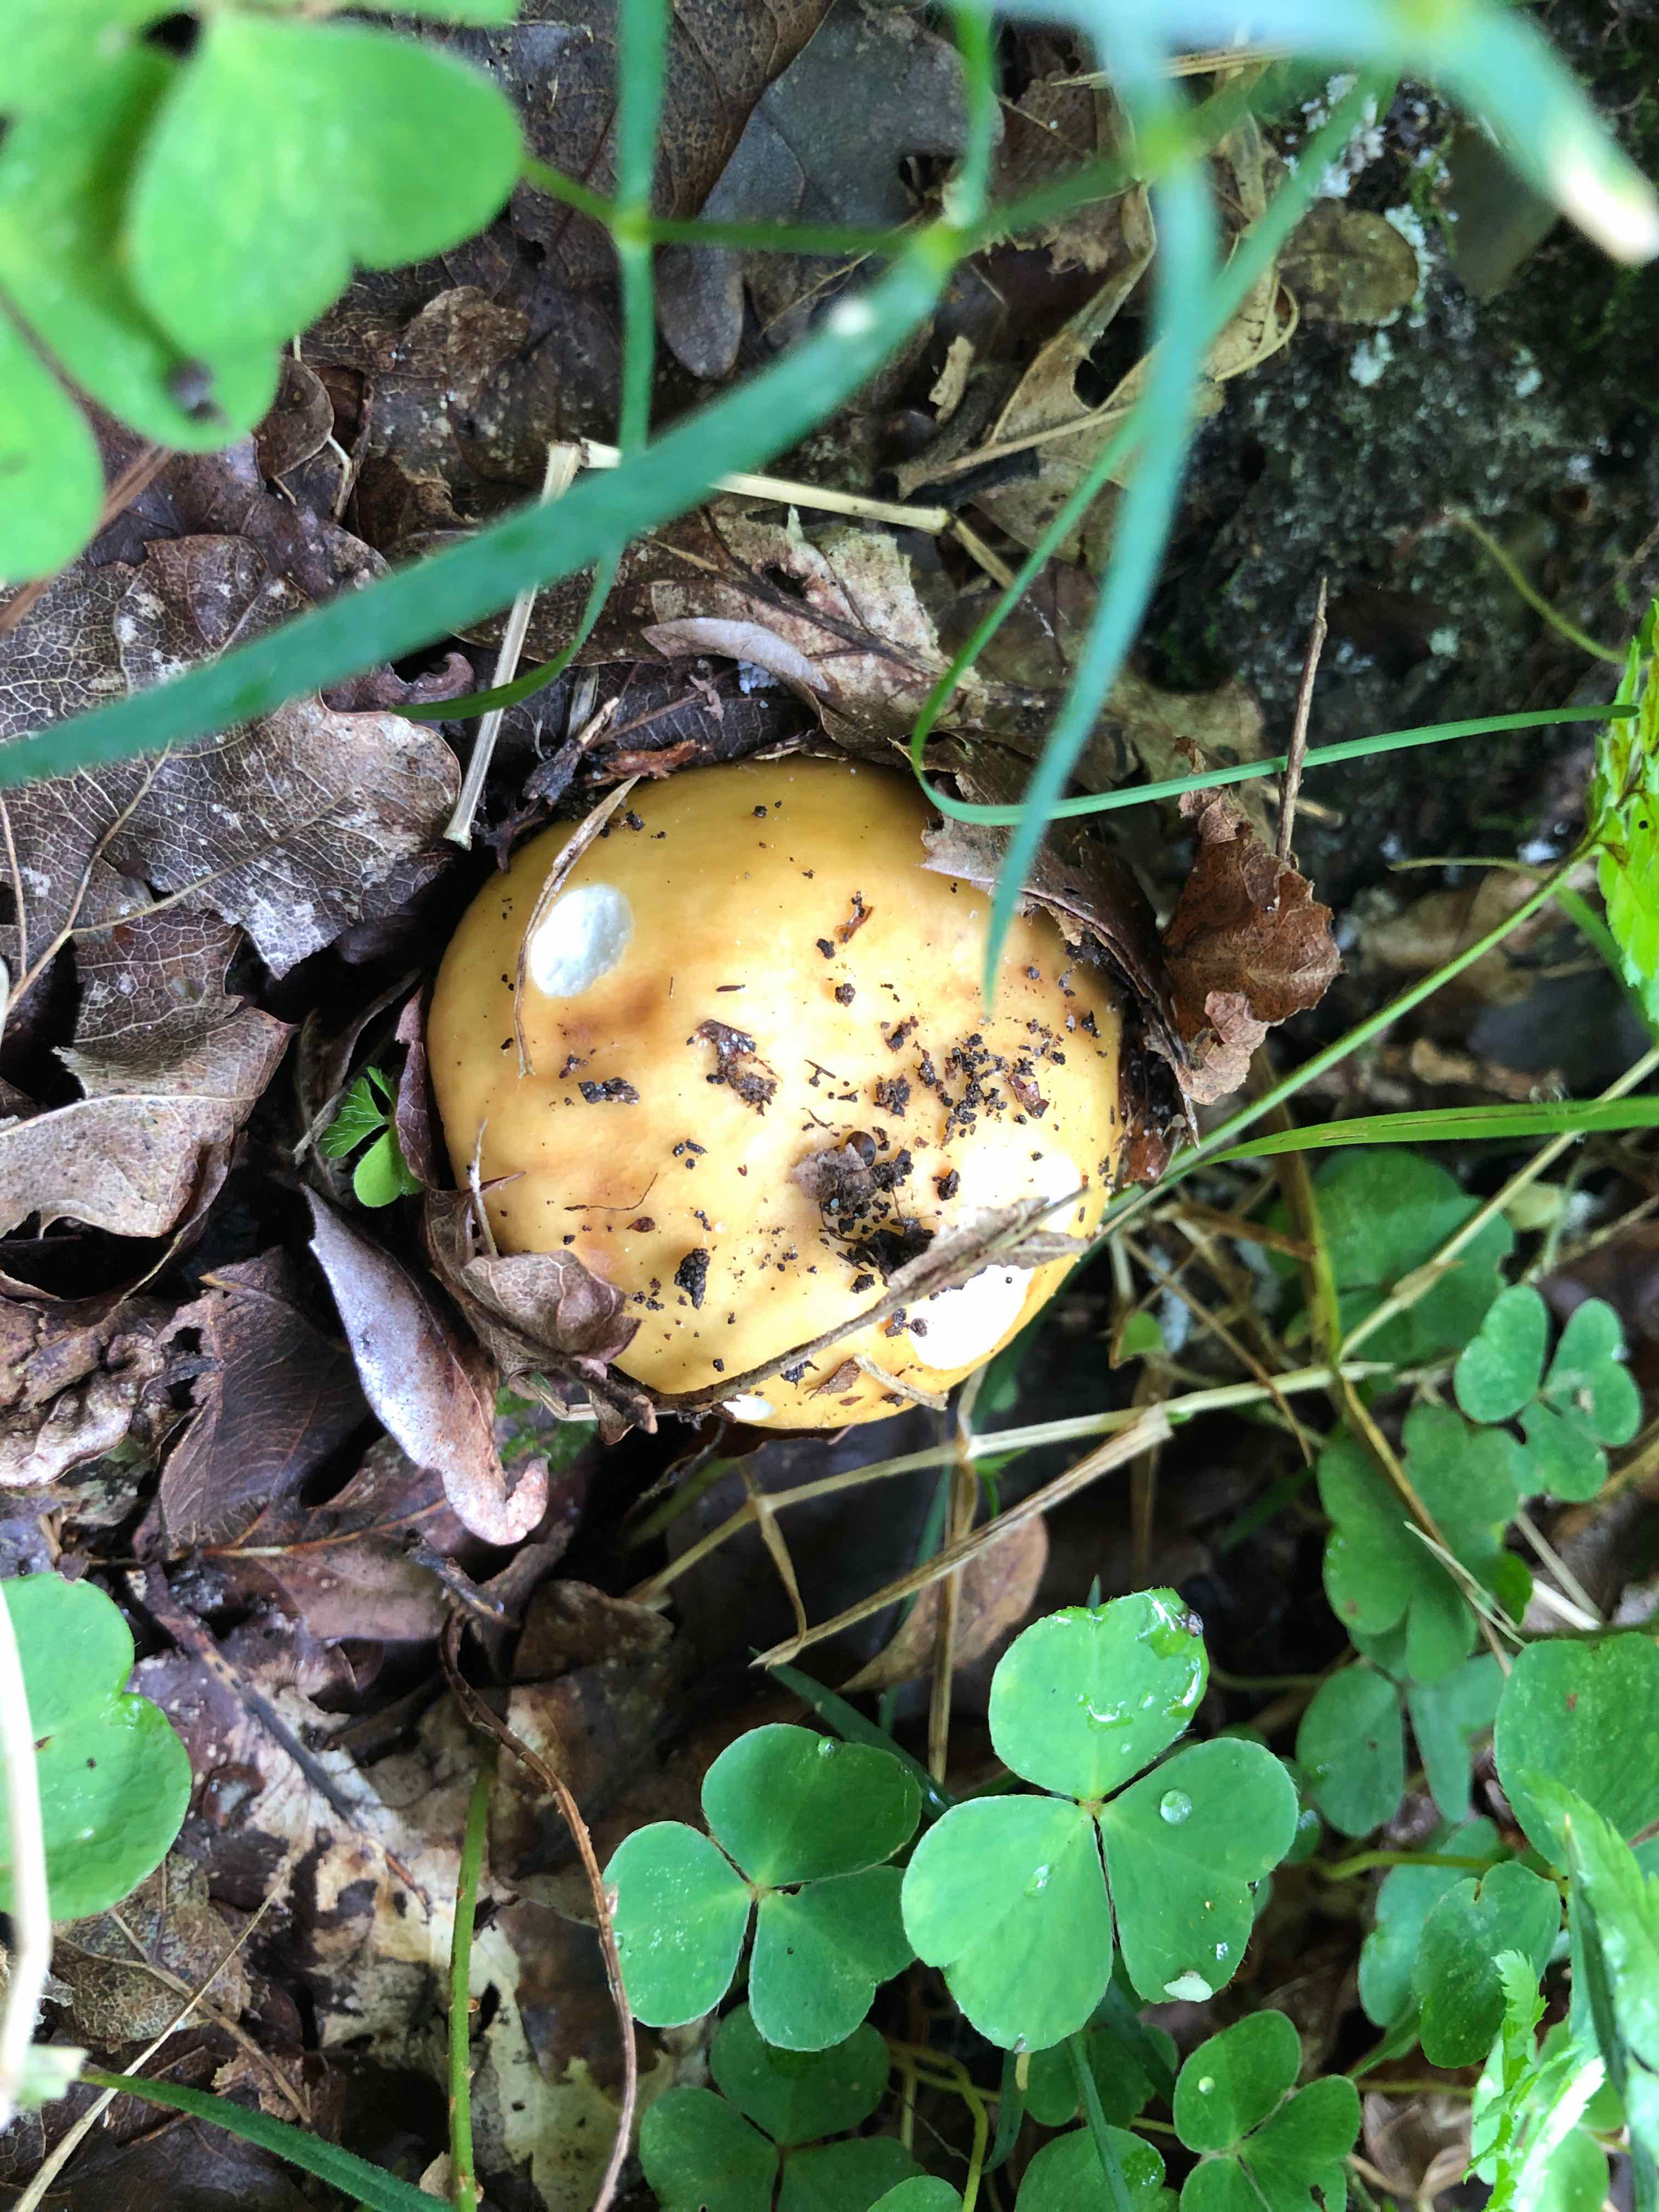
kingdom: Fungi
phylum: Basidiomycota
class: Agaricomycetes
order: Russulales
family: Russulaceae
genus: Russula
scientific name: Russula ochroleuca
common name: okkergul skørhat
